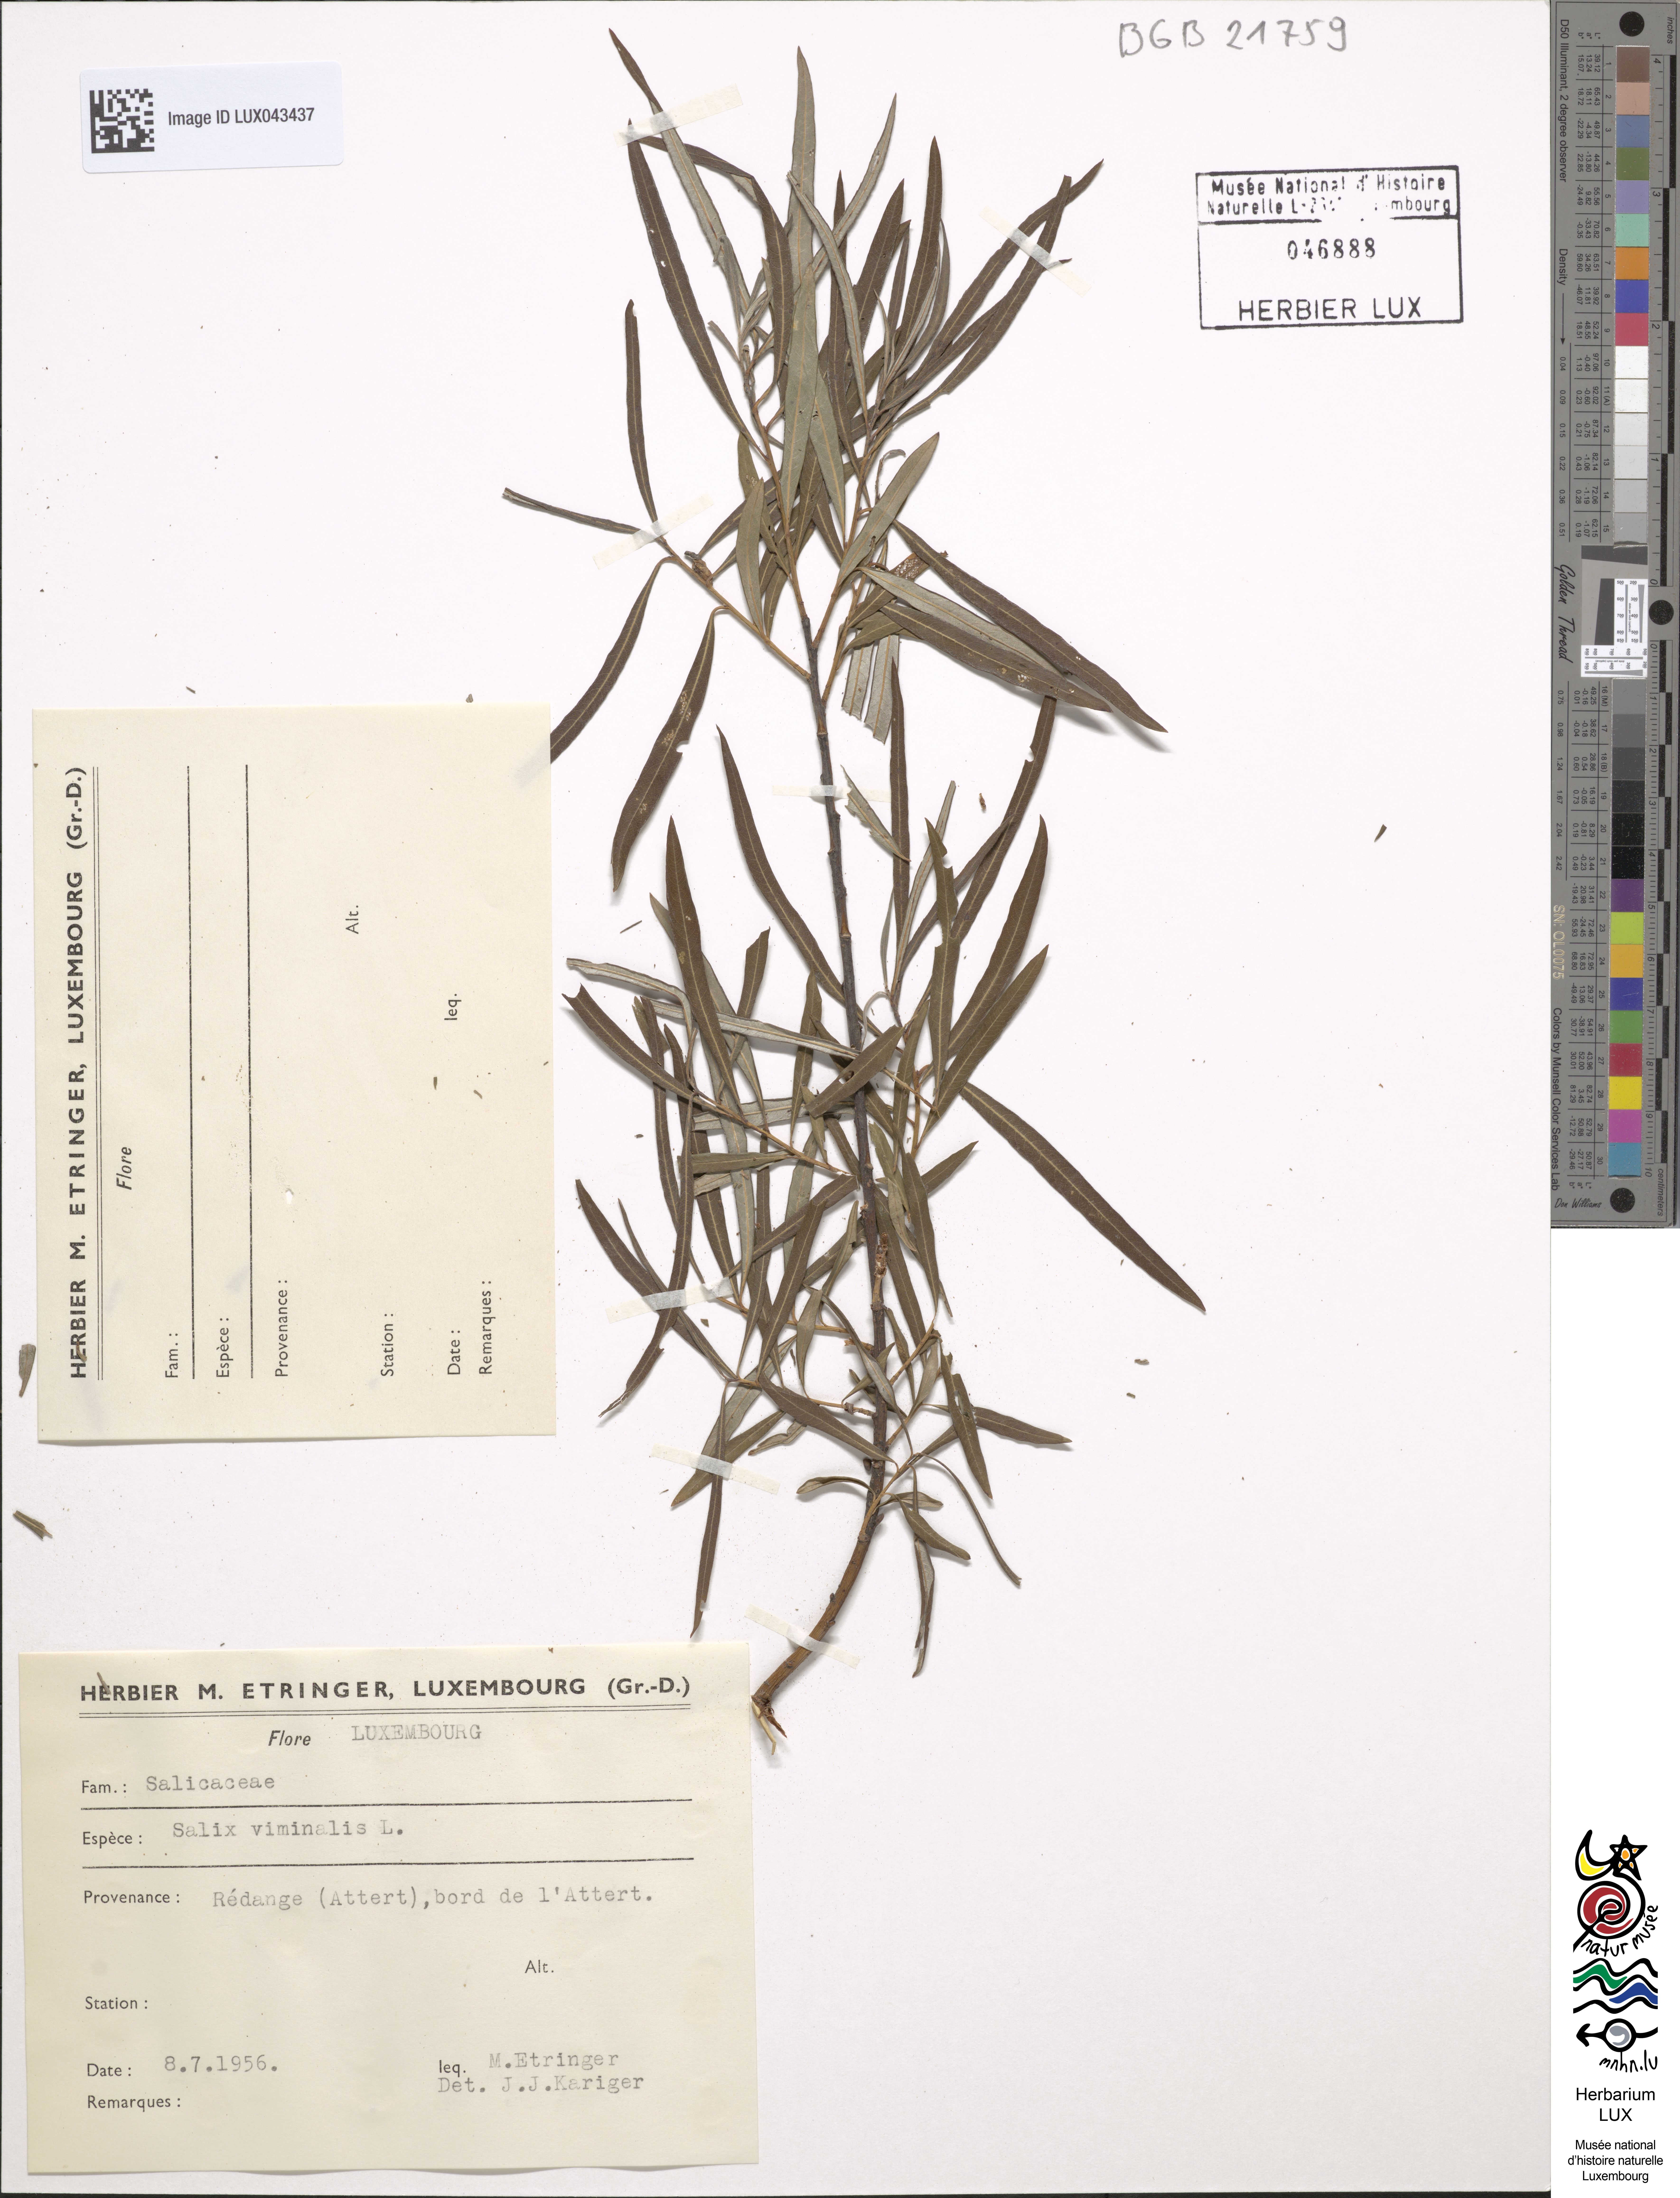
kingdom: Plantae
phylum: Tracheophyta
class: Magnoliopsida
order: Malpighiales
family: Salicaceae
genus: Salix
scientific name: Salix viminalis
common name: Osier
